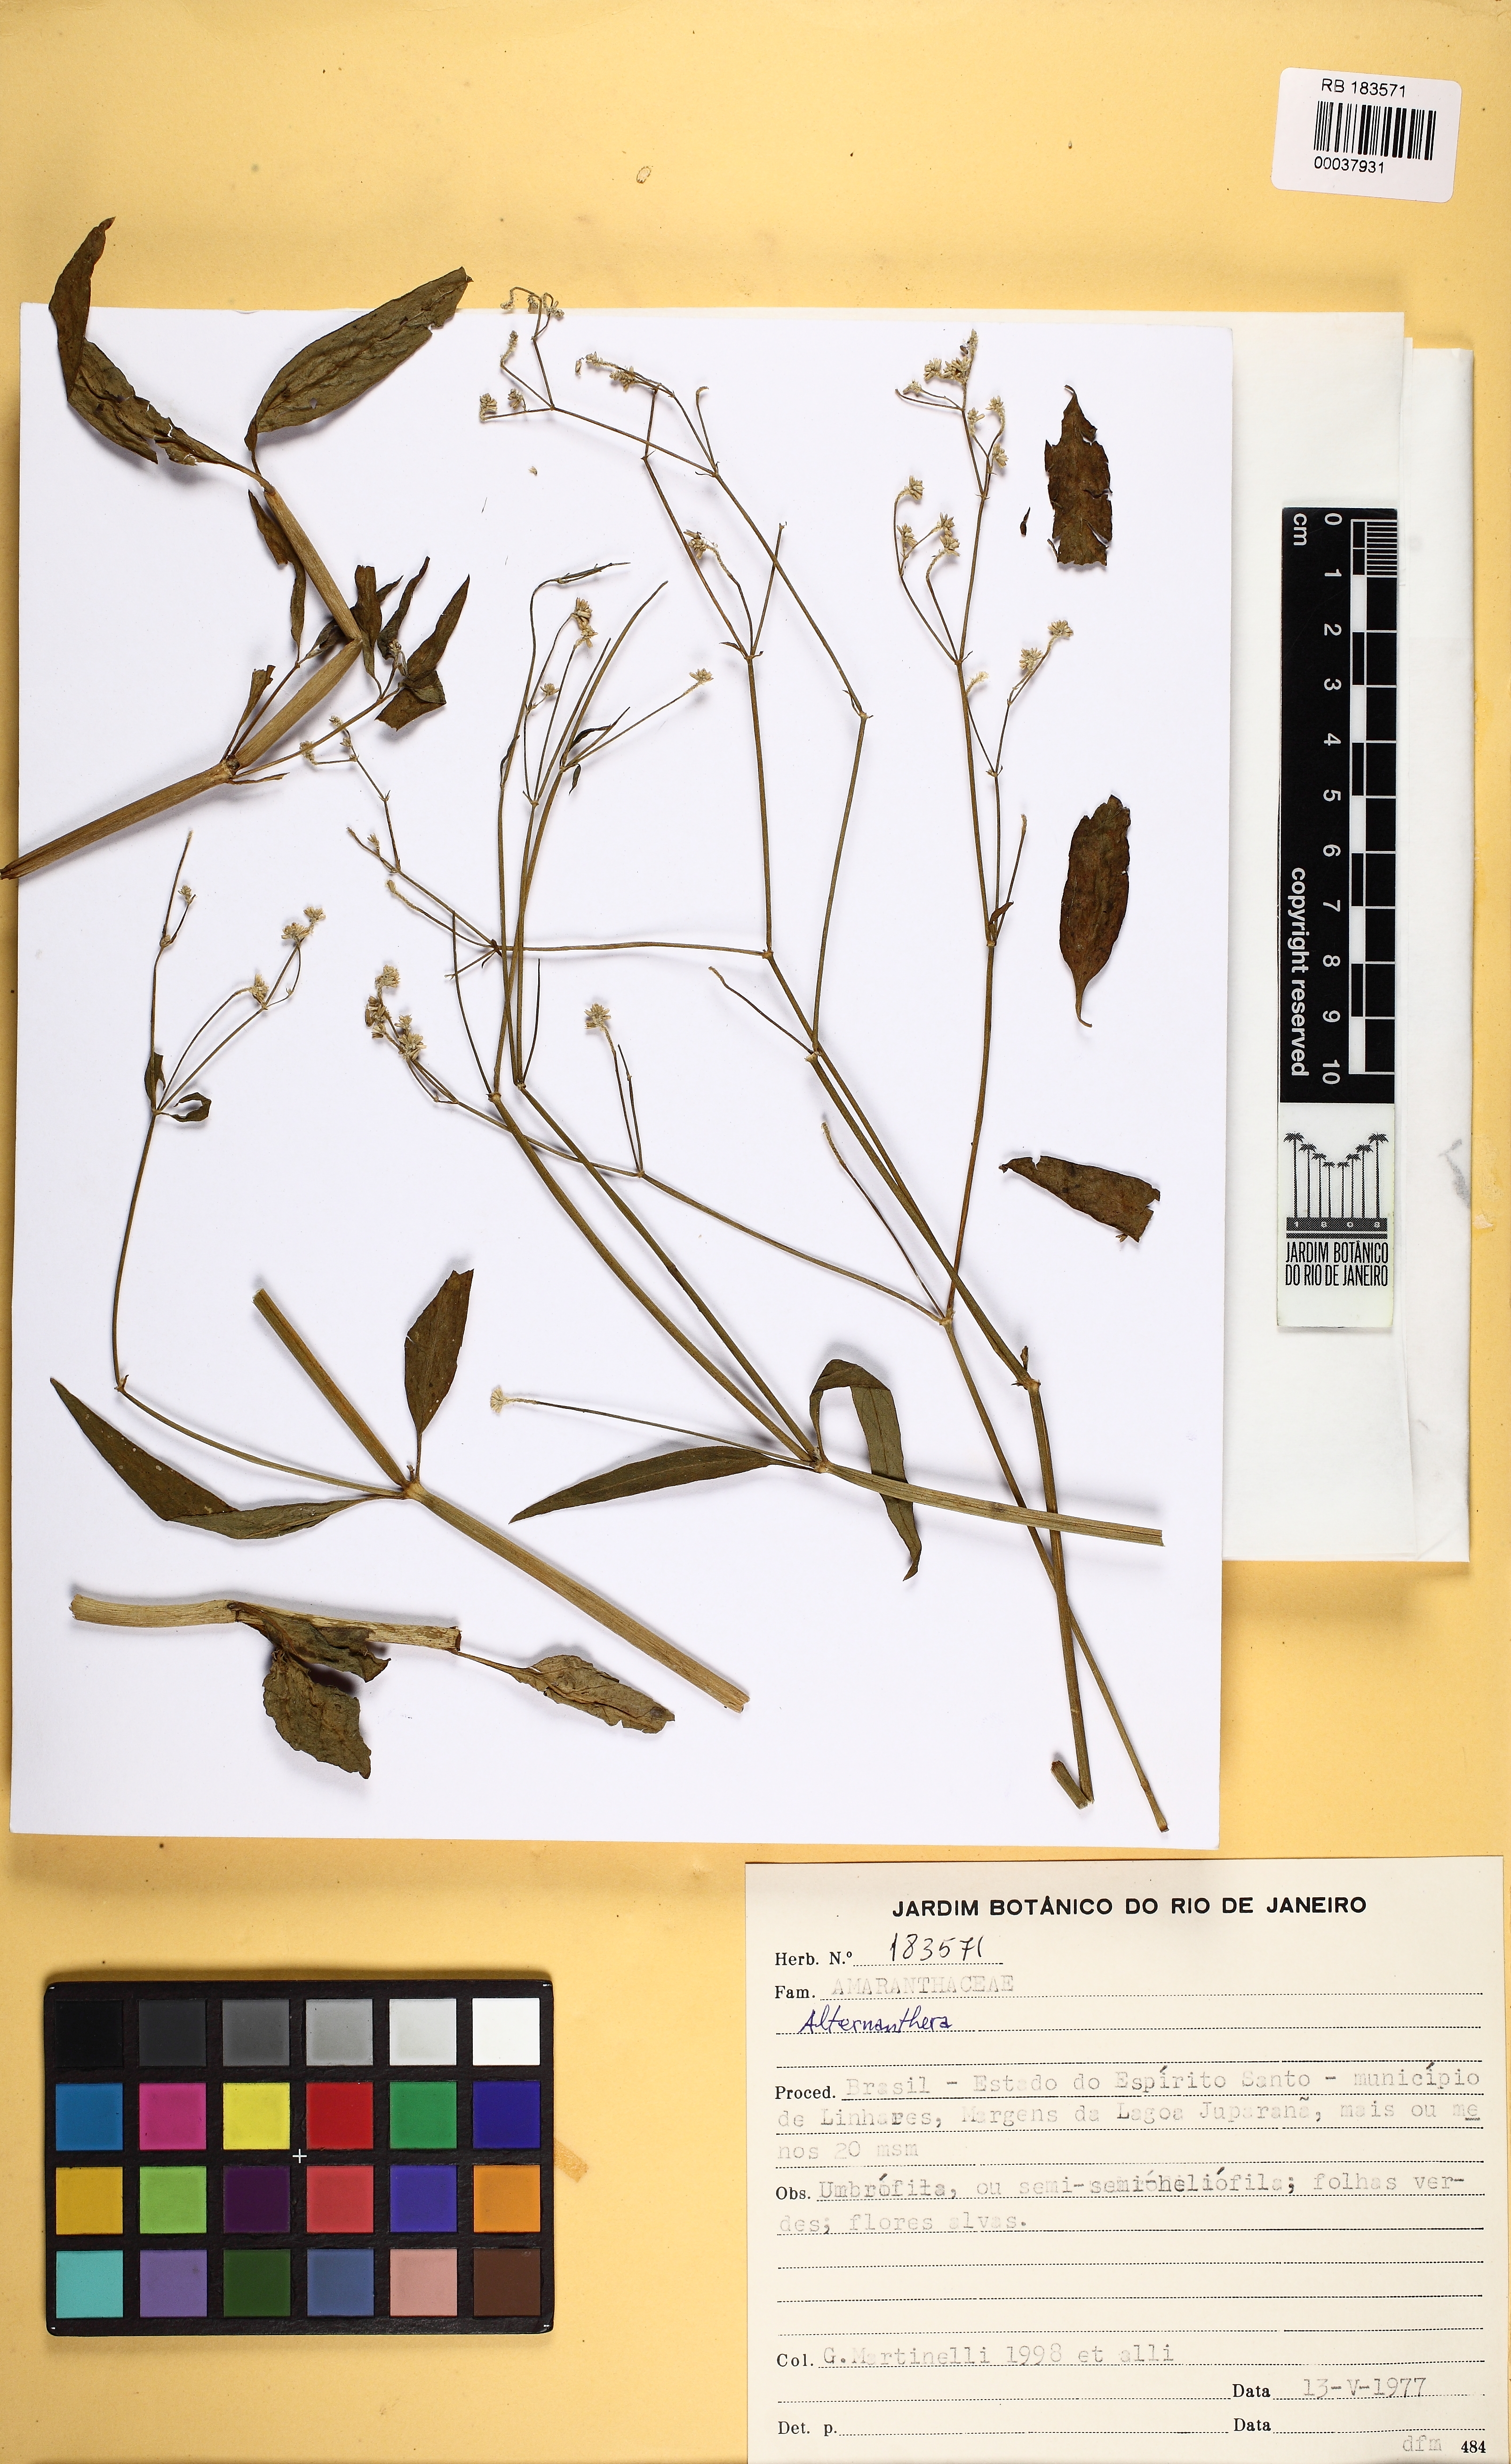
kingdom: Plantae
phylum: Tracheophyta
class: Magnoliopsida
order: Caryophyllales
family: Amaranthaceae
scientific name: Amaranthaceae
